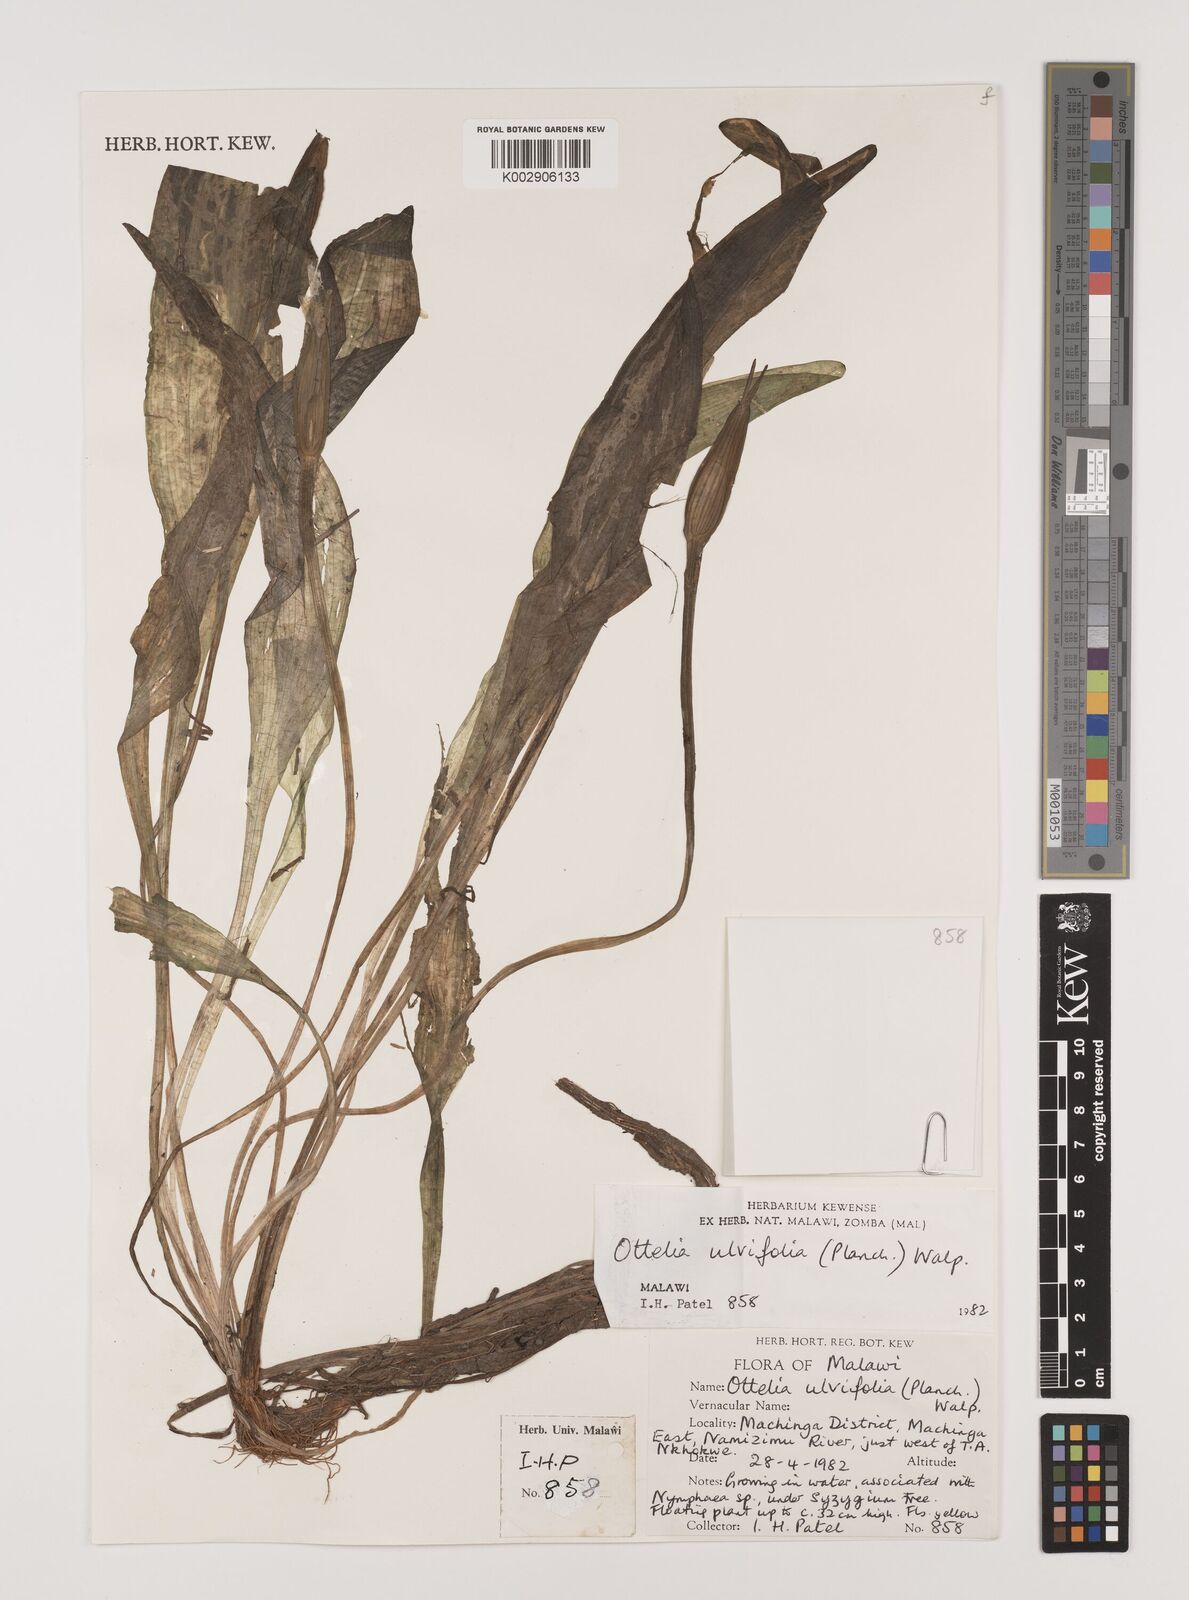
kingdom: Plantae
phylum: Tracheophyta
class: Liliopsida
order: Alismatales
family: Hydrocharitaceae
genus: Ottelia
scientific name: Ottelia ulvifolia
